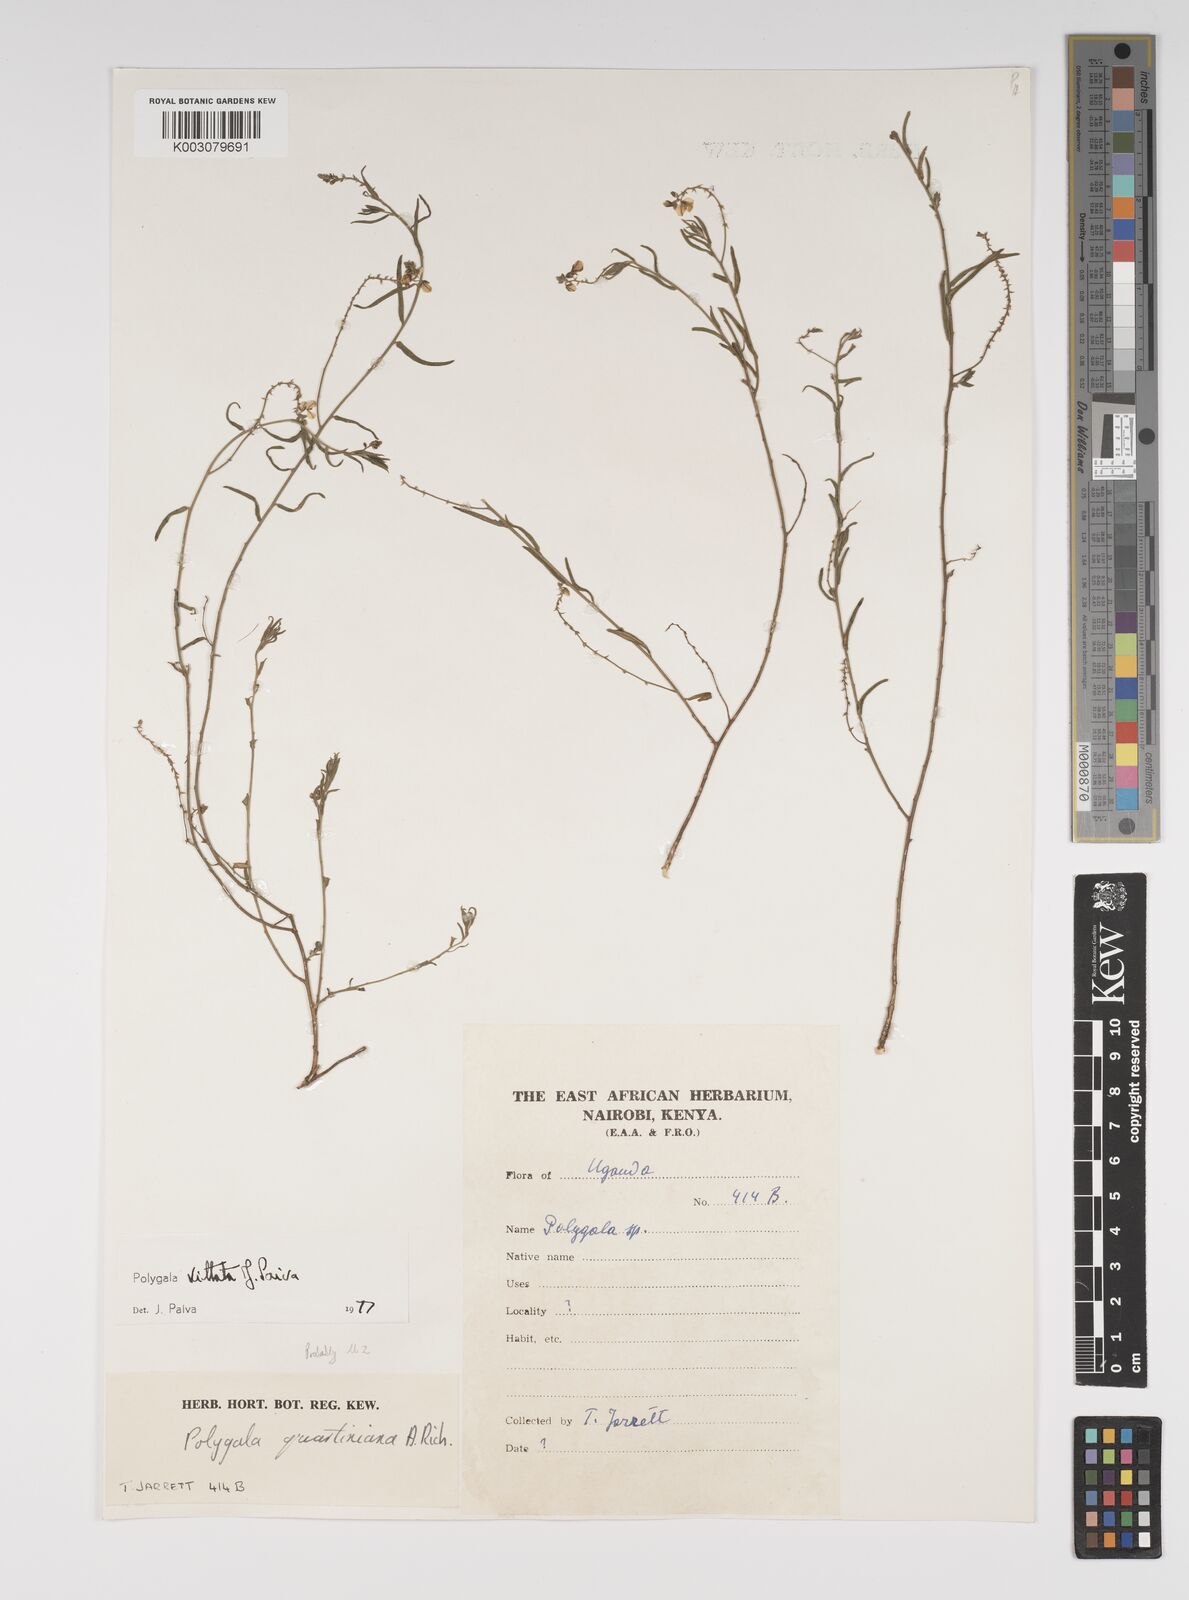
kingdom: Plantae
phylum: Tracheophyta
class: Magnoliopsida
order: Fabales
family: Polygalaceae
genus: Polygala
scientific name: Polygala vittata
